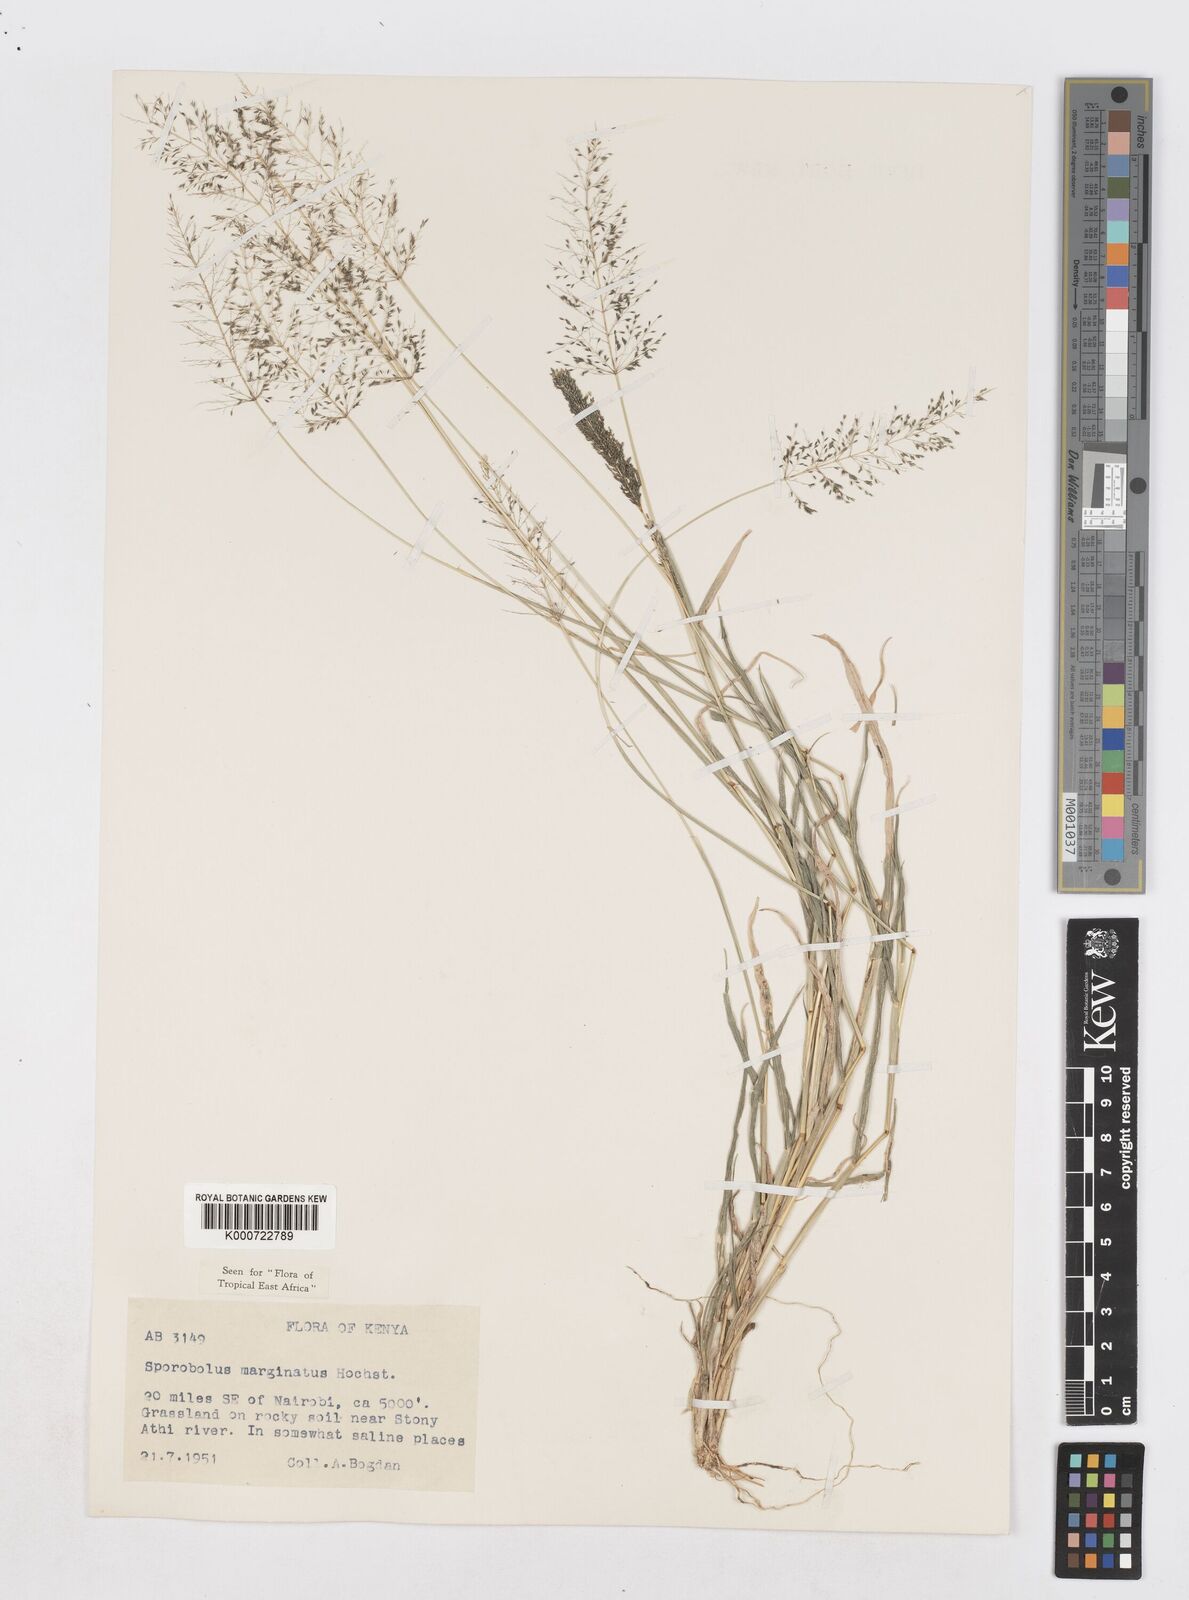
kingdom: Plantae
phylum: Tracheophyta
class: Liliopsida
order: Poales
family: Poaceae
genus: Sporobolus
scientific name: Sporobolus ioclados
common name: Pan dropseed
